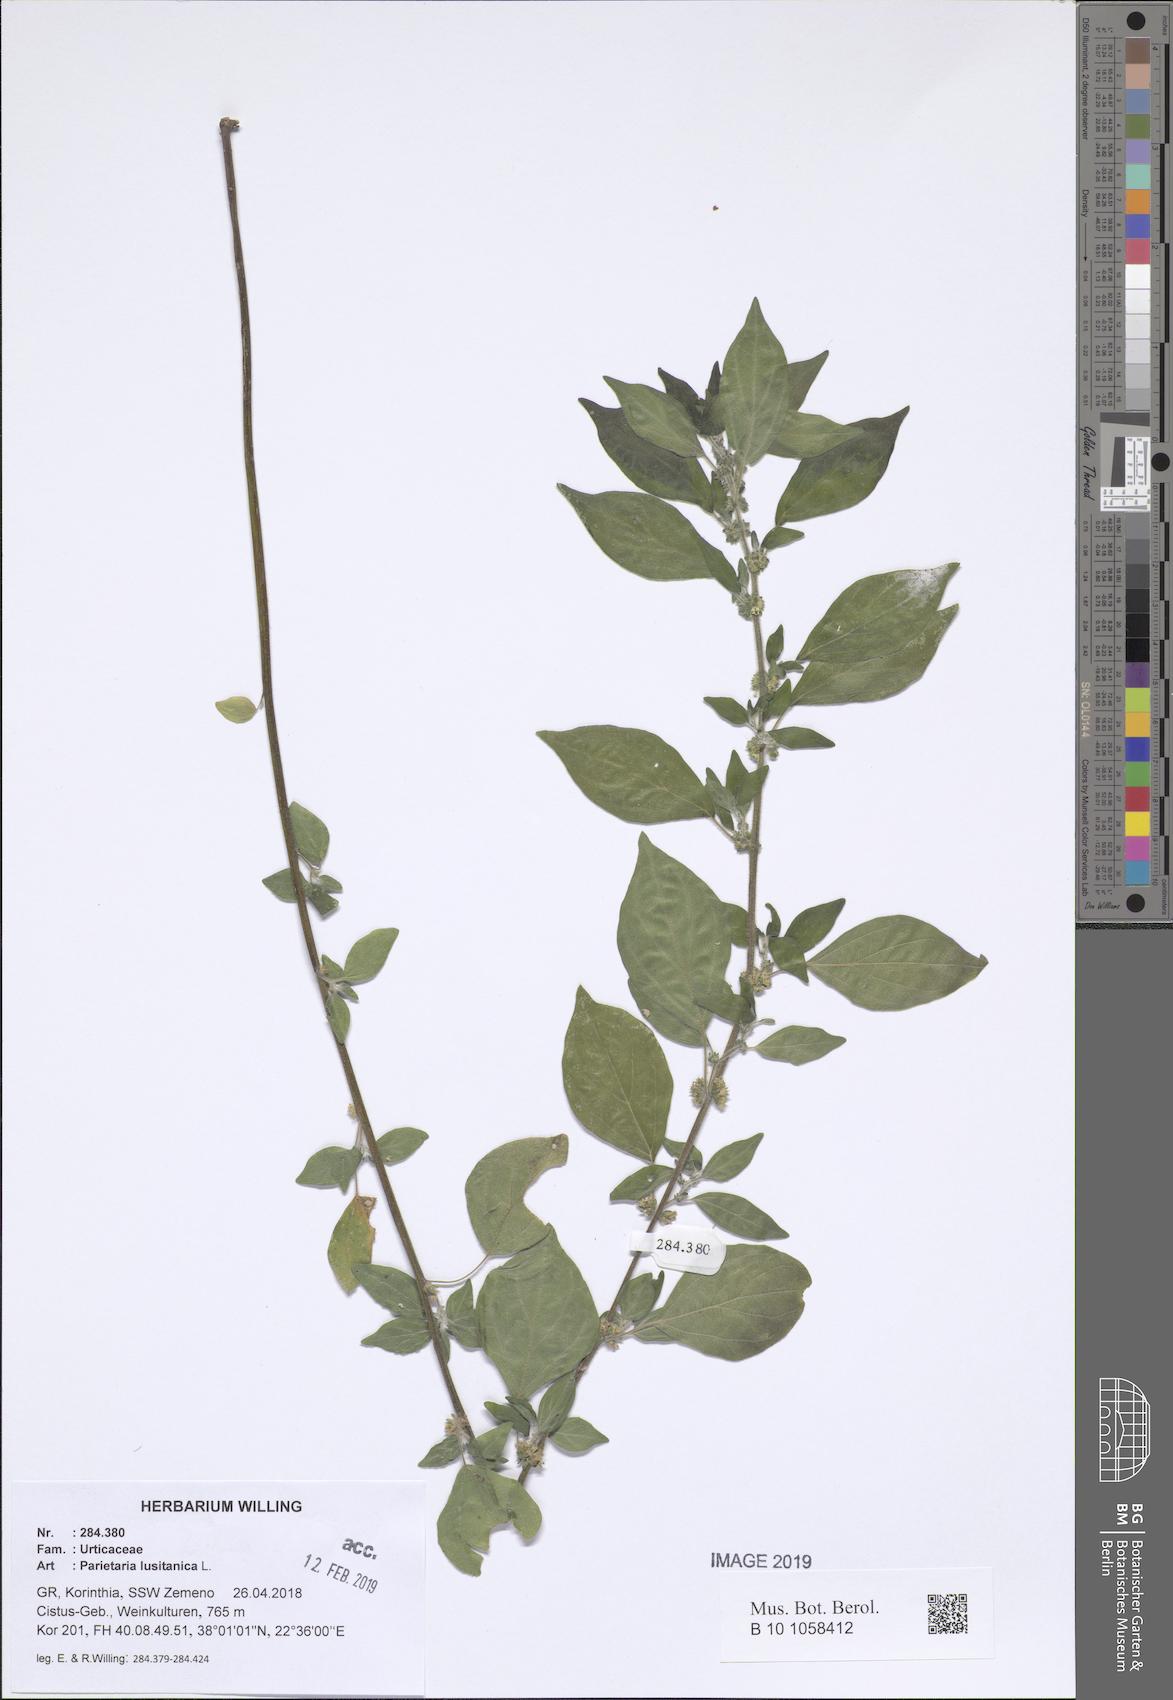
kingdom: Plantae
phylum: Tracheophyta
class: Magnoliopsida
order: Rosales
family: Urticaceae
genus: Parietaria
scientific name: Parietaria lusitanica
